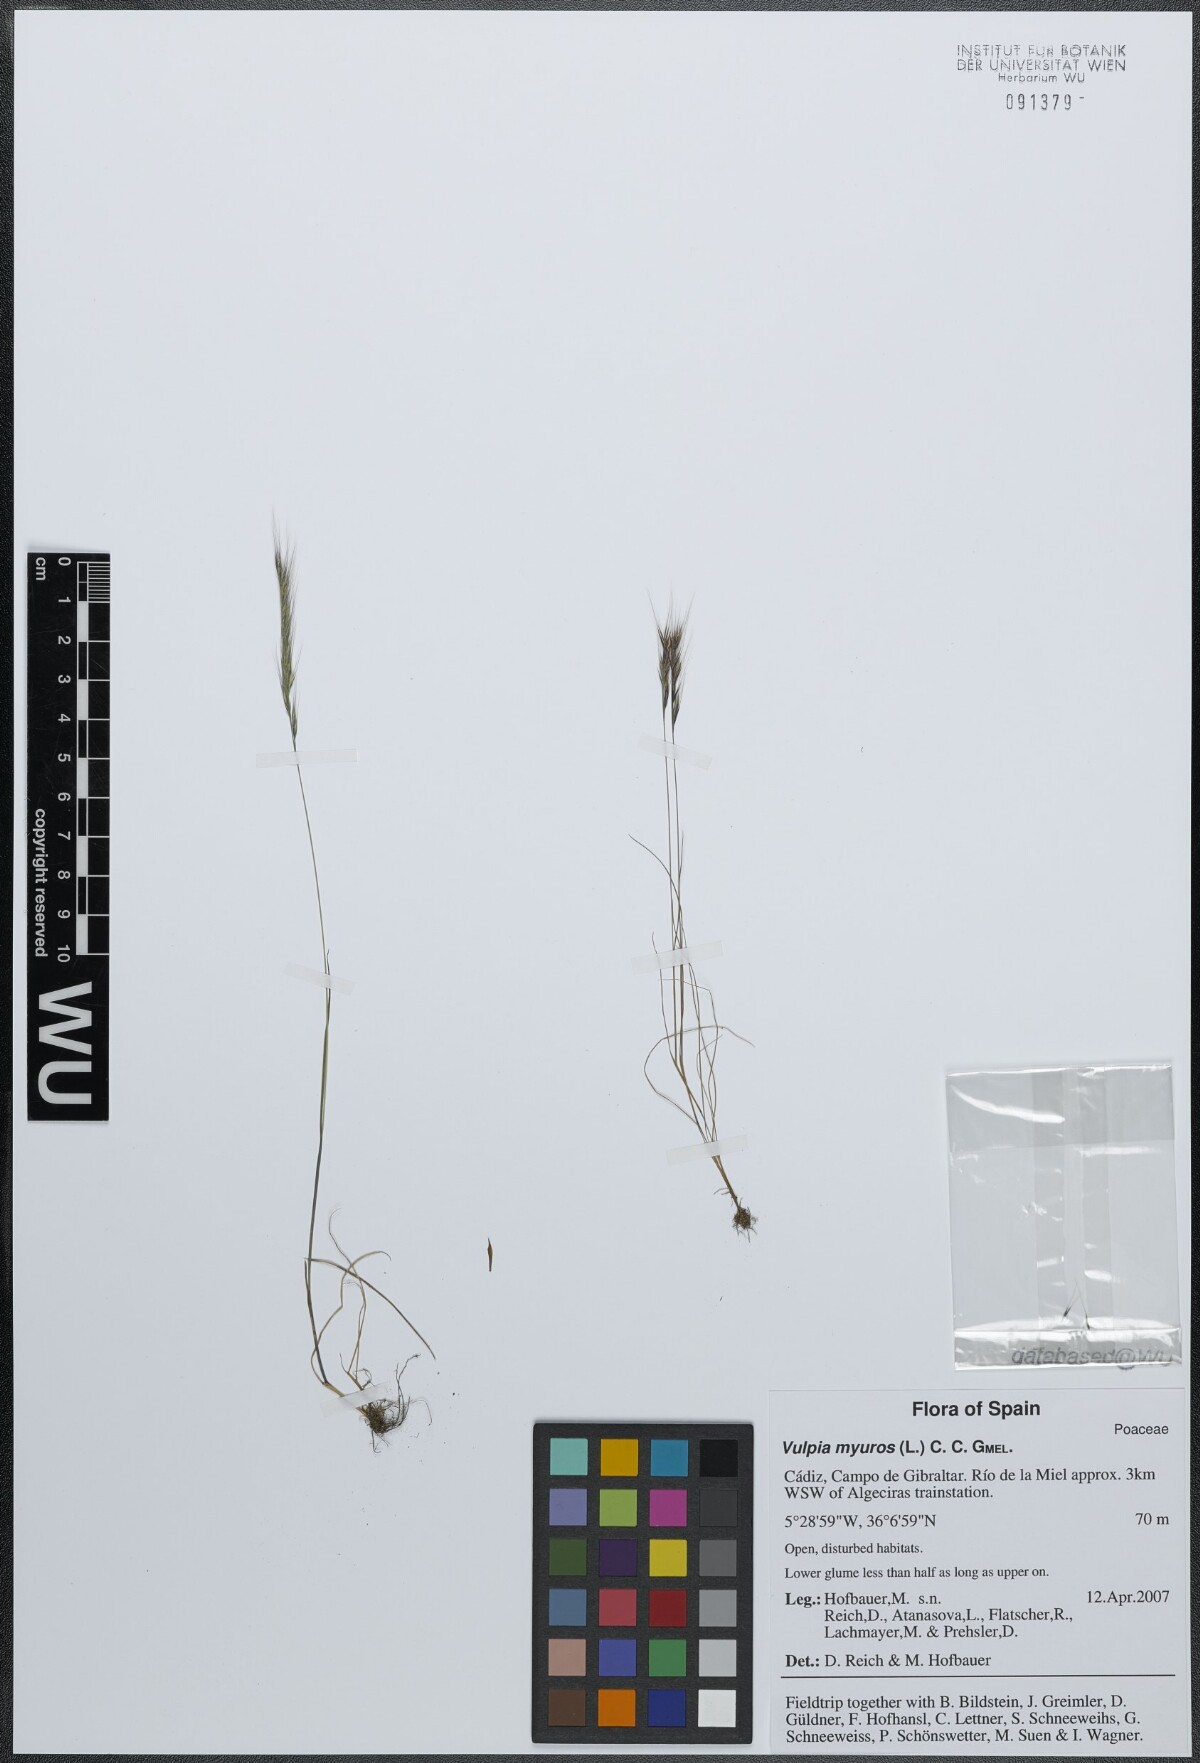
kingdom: Plantae
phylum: Tracheophyta
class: Liliopsida
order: Poales
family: Poaceae
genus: Festuca
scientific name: Festuca myuros
